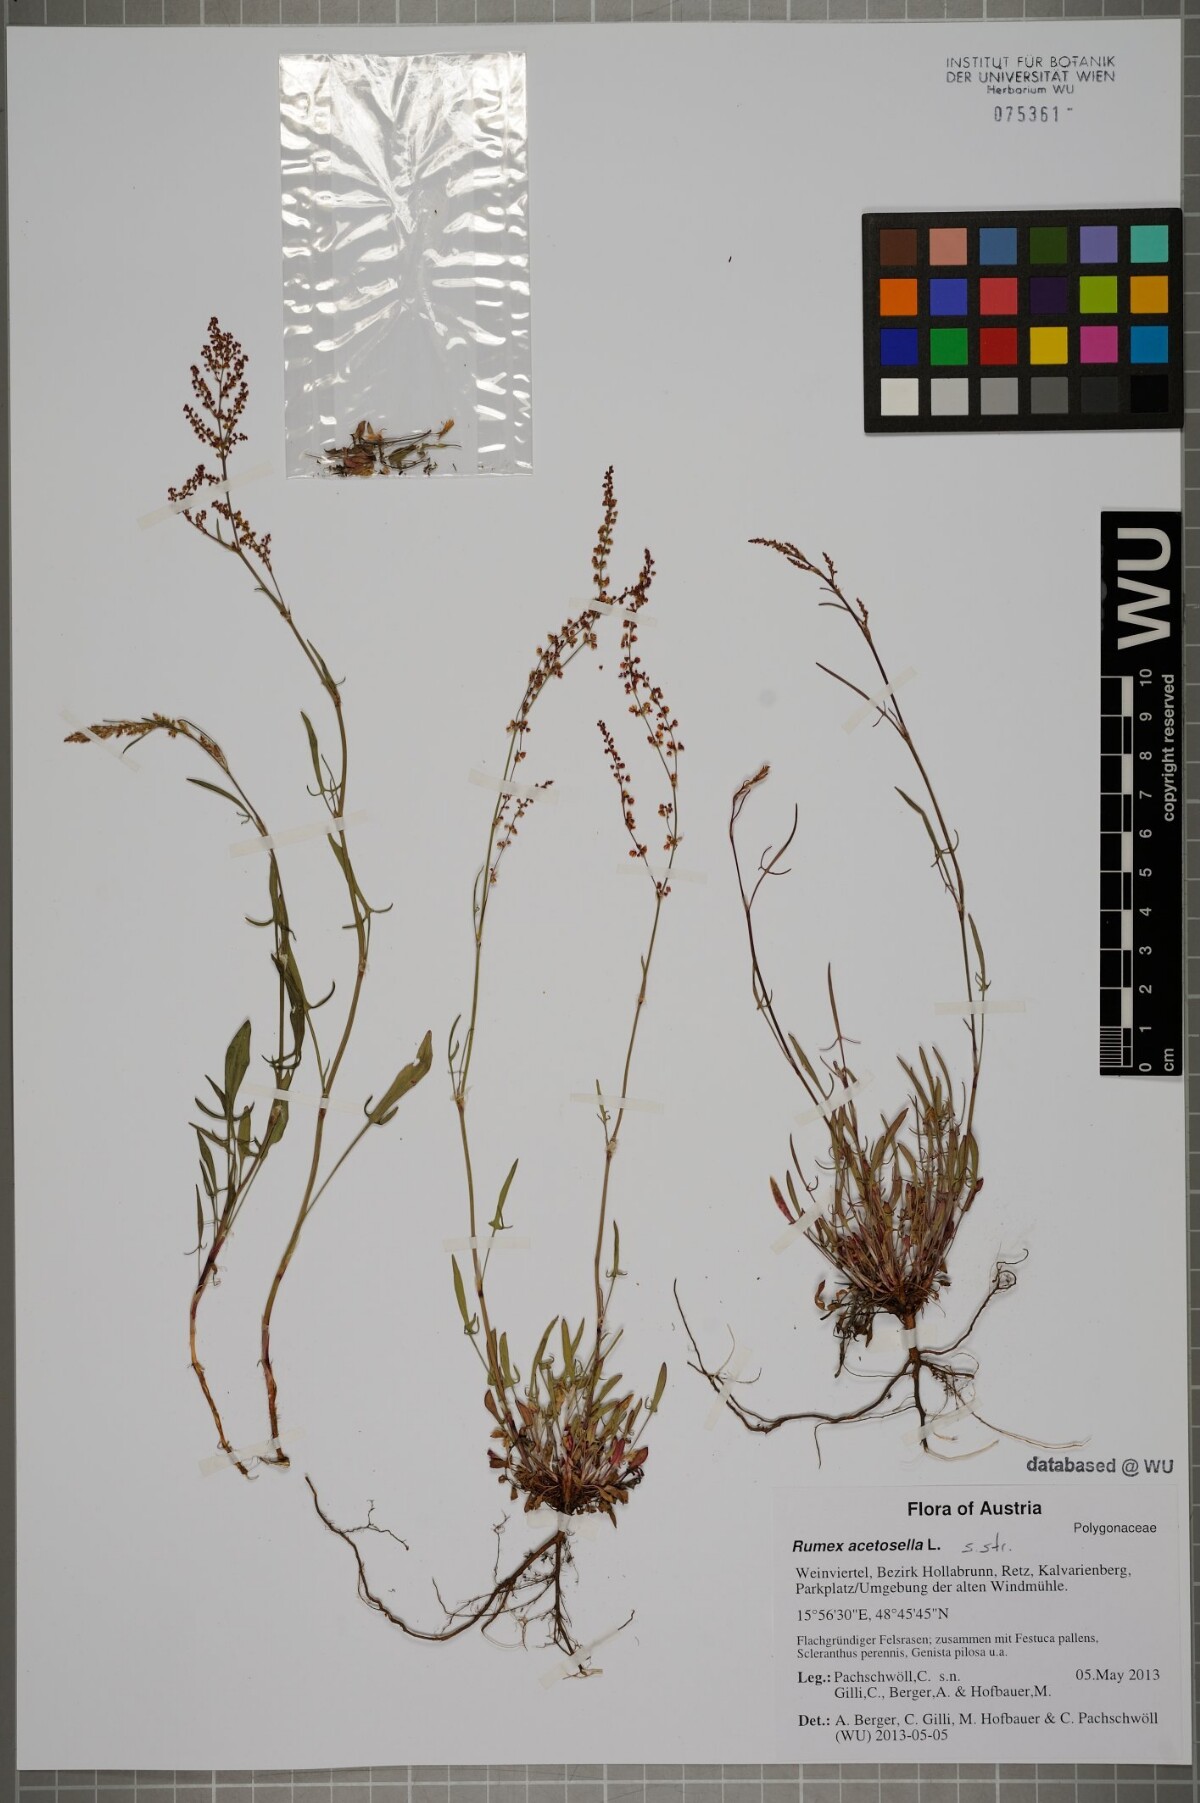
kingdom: Plantae
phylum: Tracheophyta
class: Magnoliopsida
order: Caryophyllales
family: Polygonaceae
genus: Rumex
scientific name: Rumex acetosella
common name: Common sheep sorrel
